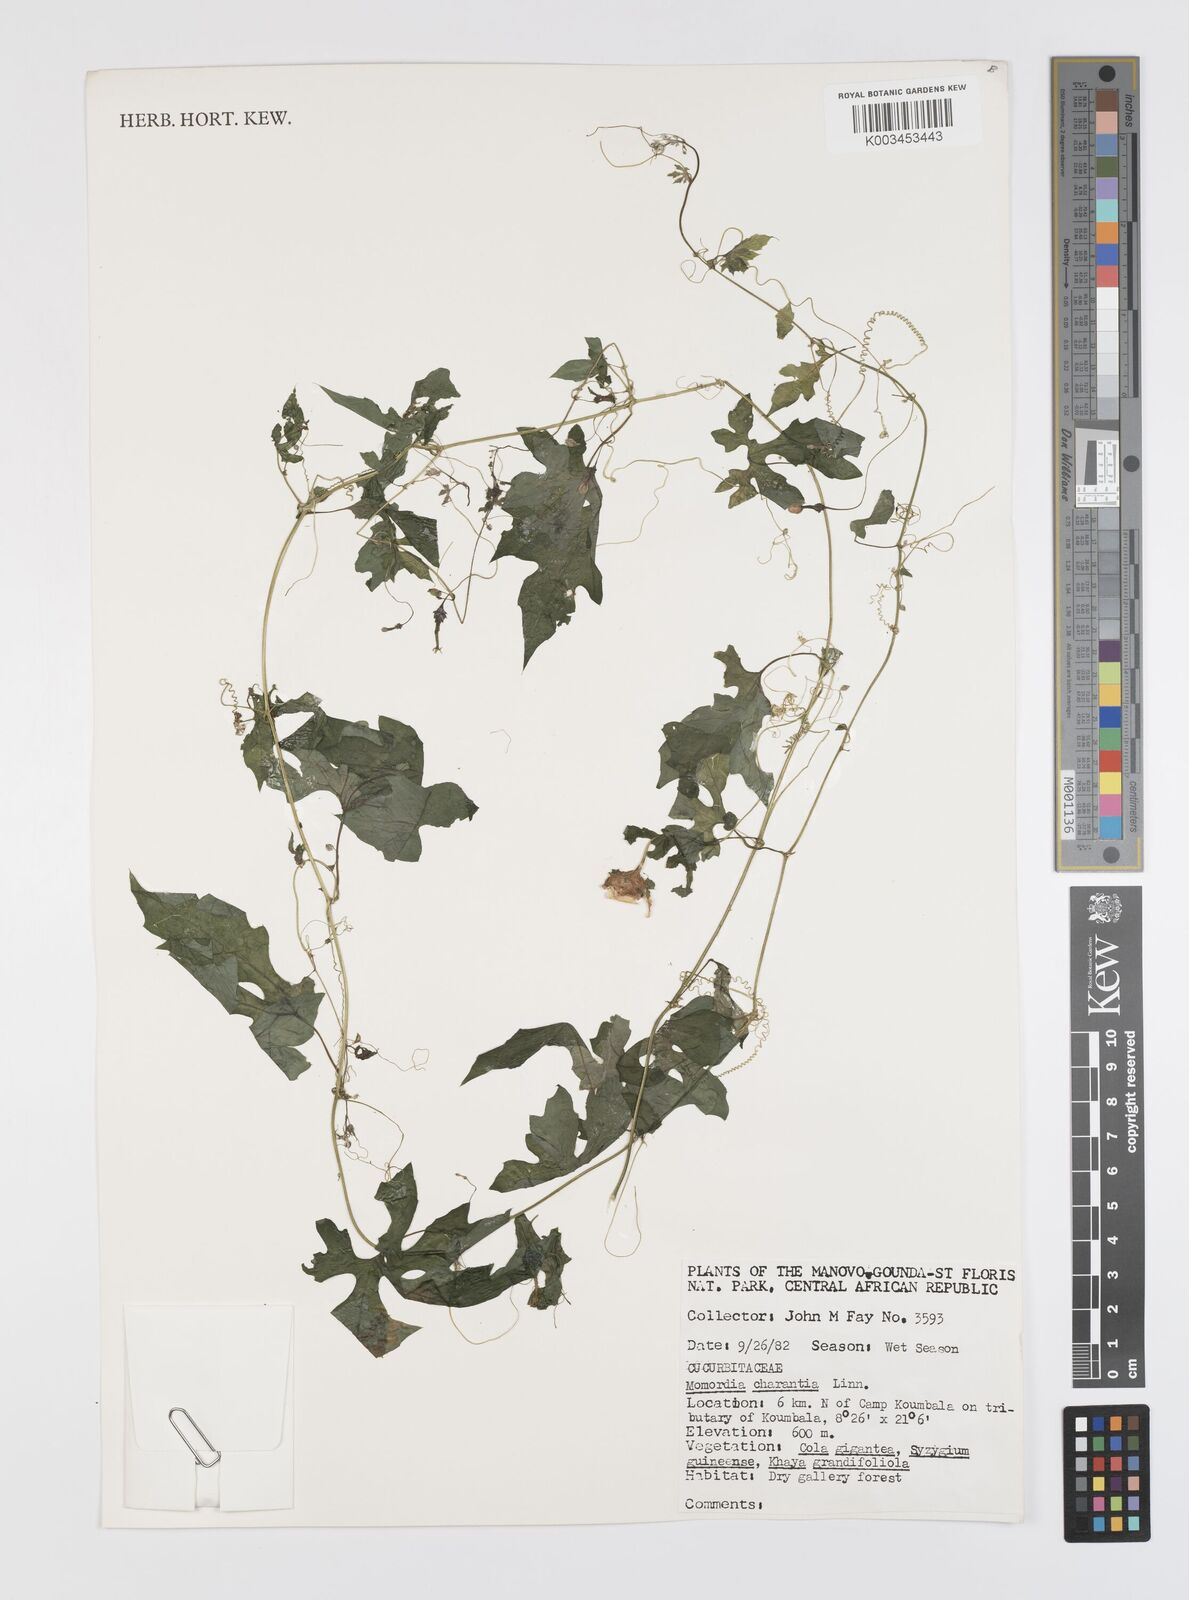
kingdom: Plantae
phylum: Tracheophyta
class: Magnoliopsida
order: Cucurbitales
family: Cucurbitaceae
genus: Momordica
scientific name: Momordica charantia
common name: Balsampear
